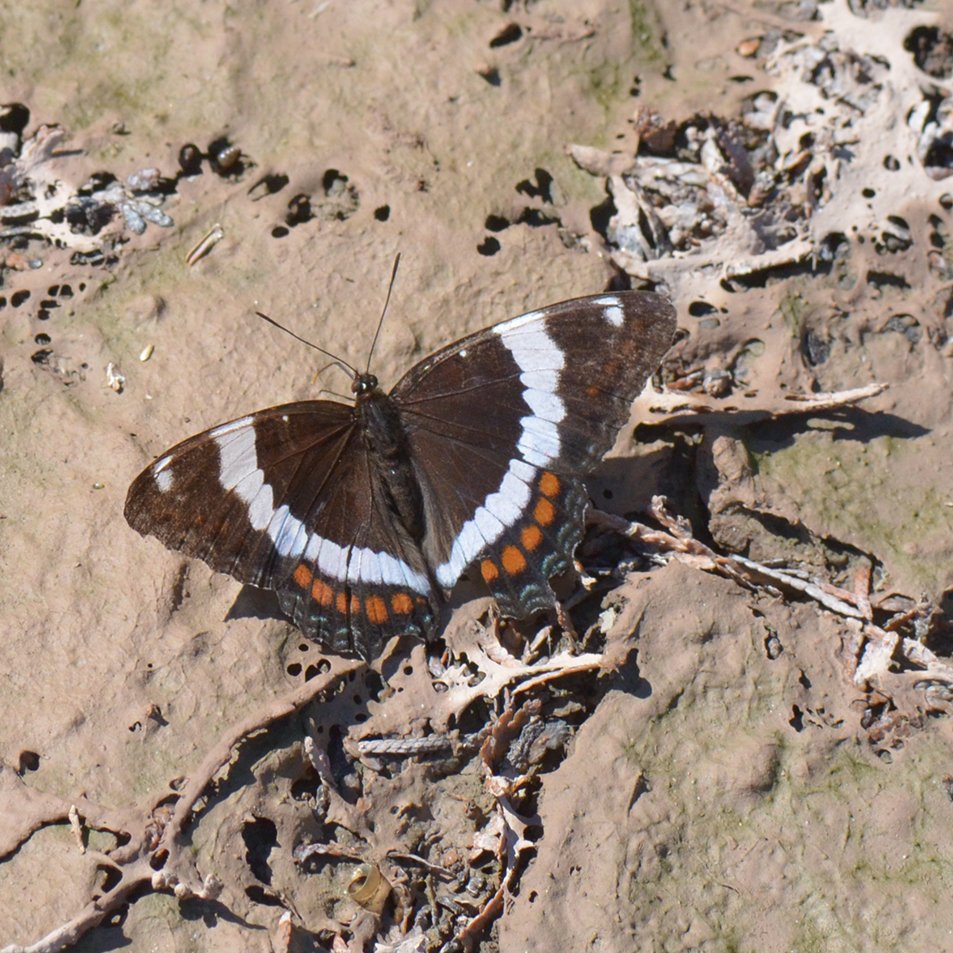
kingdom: Animalia
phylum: Arthropoda
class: Insecta
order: Lepidoptera
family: Nymphalidae
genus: Limenitis
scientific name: Limenitis arthemis
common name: Red-spotted Admiral
